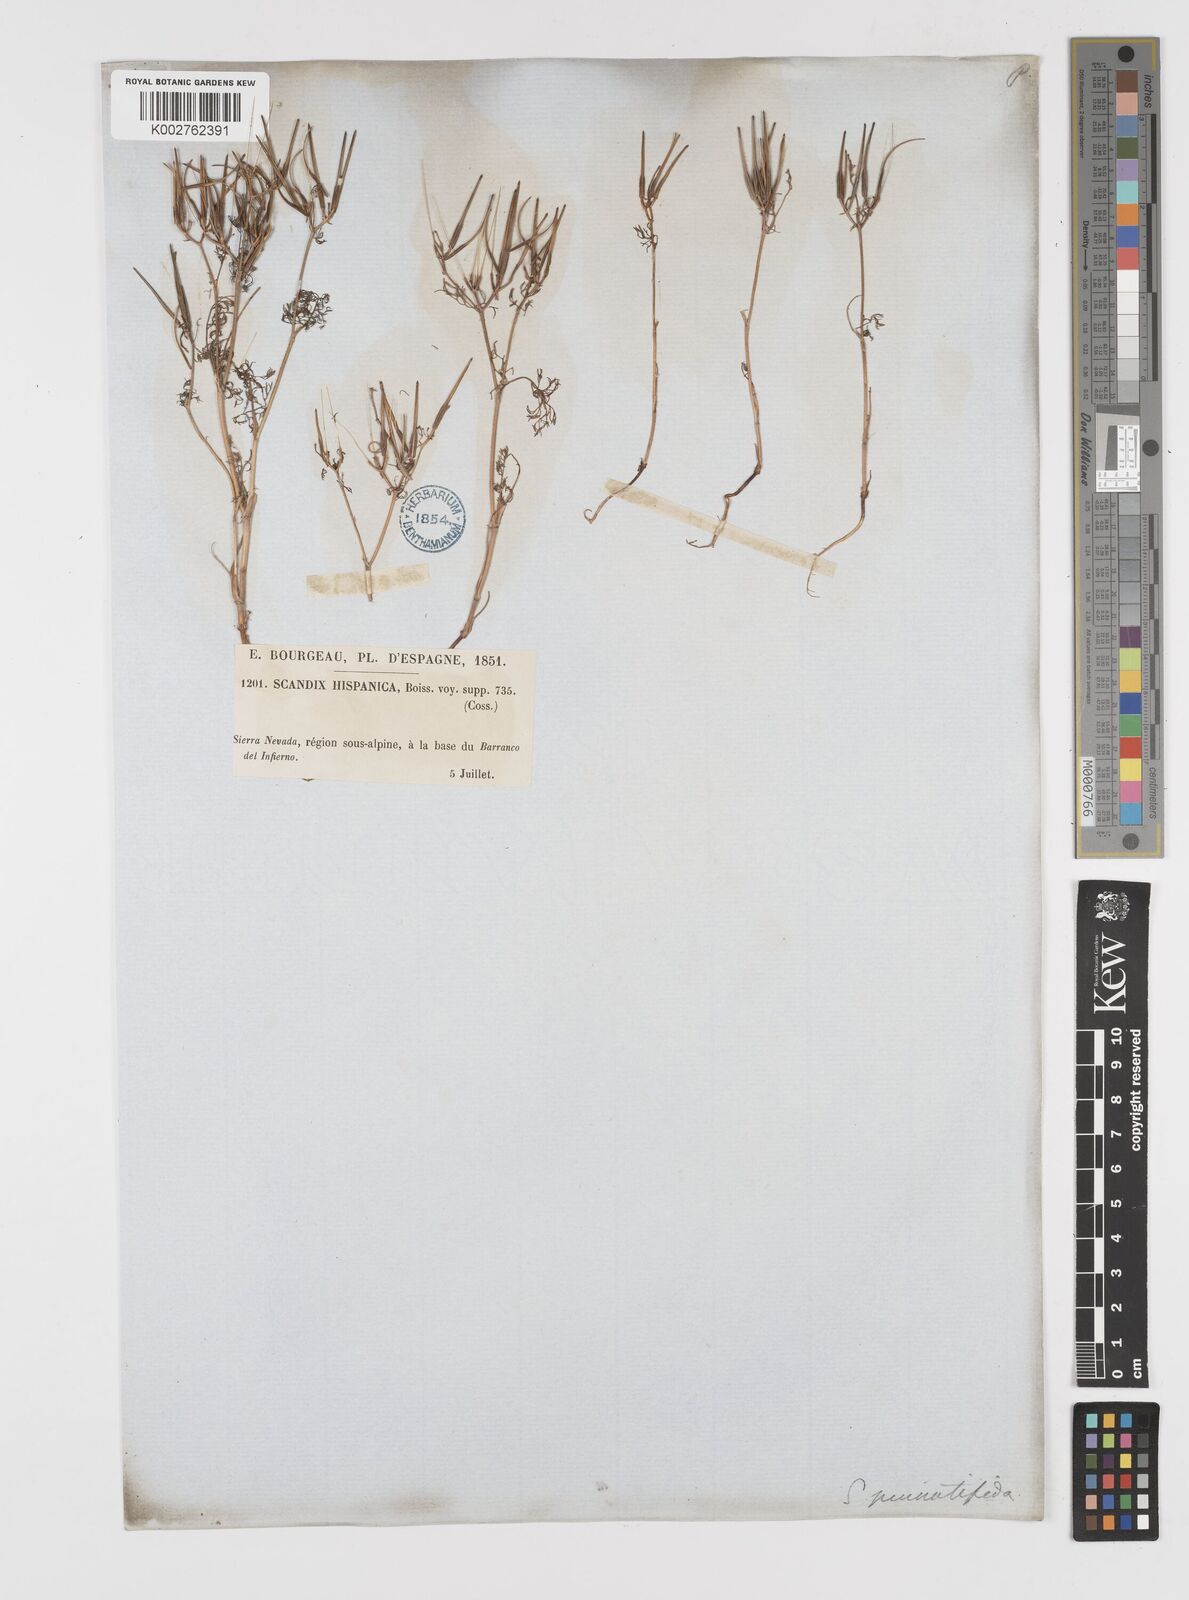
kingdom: Plantae
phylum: Tracheophyta
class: Magnoliopsida
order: Apiales
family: Apiaceae
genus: Scandix
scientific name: Scandix pecten-veneris
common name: Shepherd's-needle
